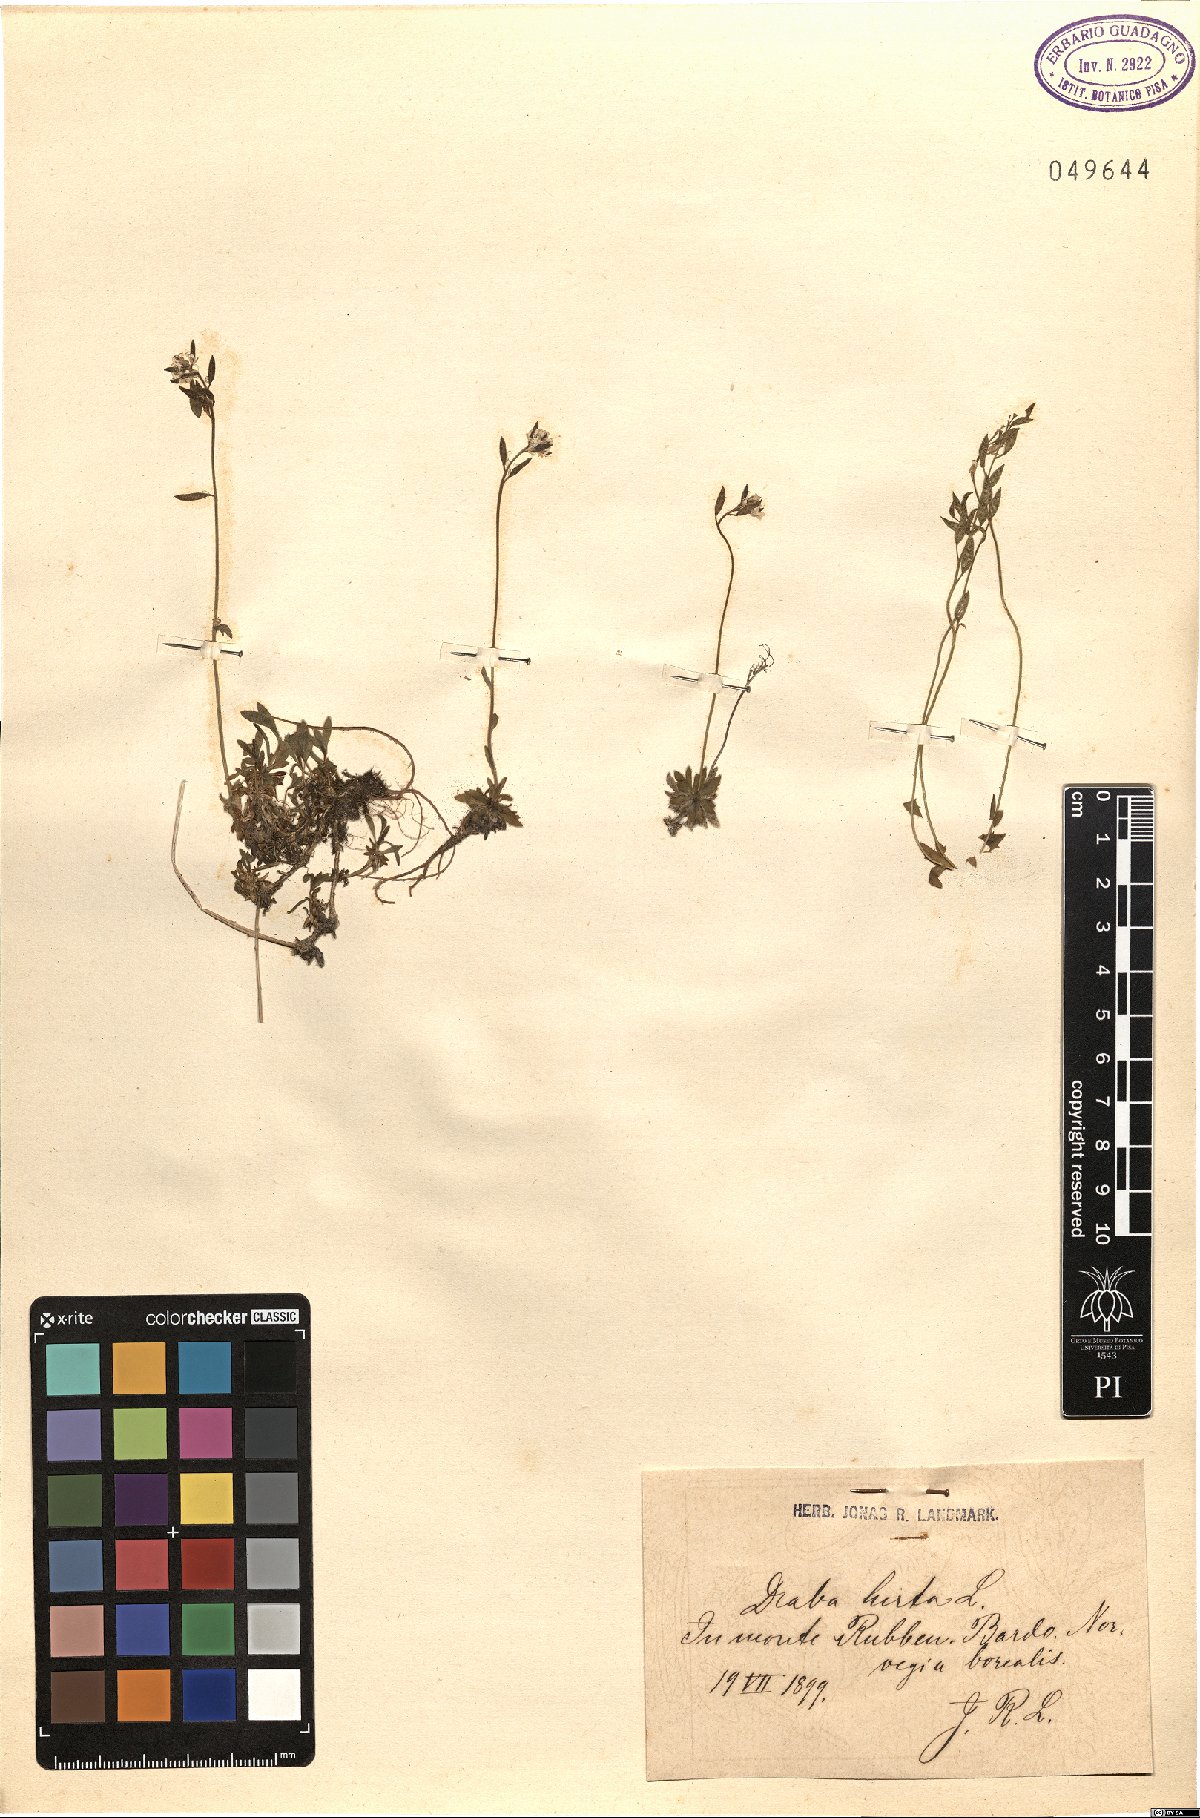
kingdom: Plantae
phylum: Tracheophyta
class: Magnoliopsida
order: Brassicales
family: Brassicaceae
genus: Draba
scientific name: Draba glabella
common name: Glaucous draba
